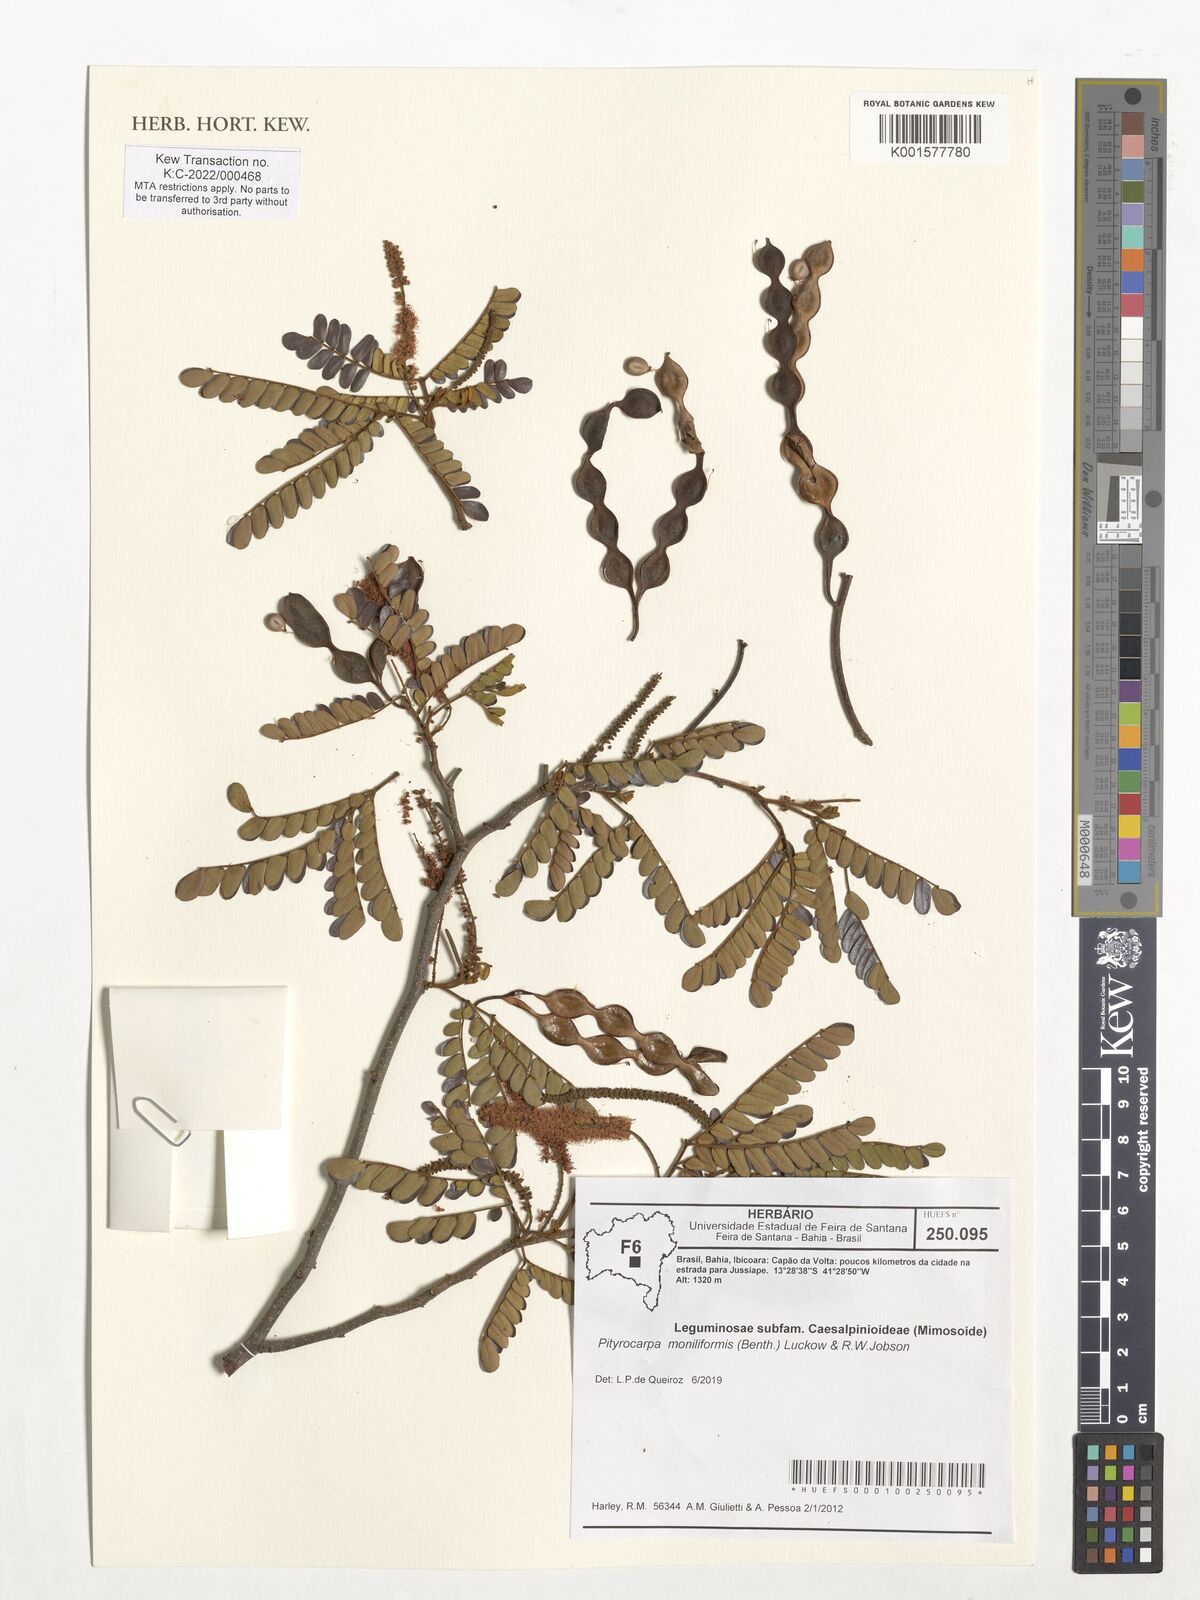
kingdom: Plantae
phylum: Tracheophyta
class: Magnoliopsida
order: Fabales
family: Fabaceae
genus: Pityrocarpa
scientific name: Pityrocarpa moniliformis
